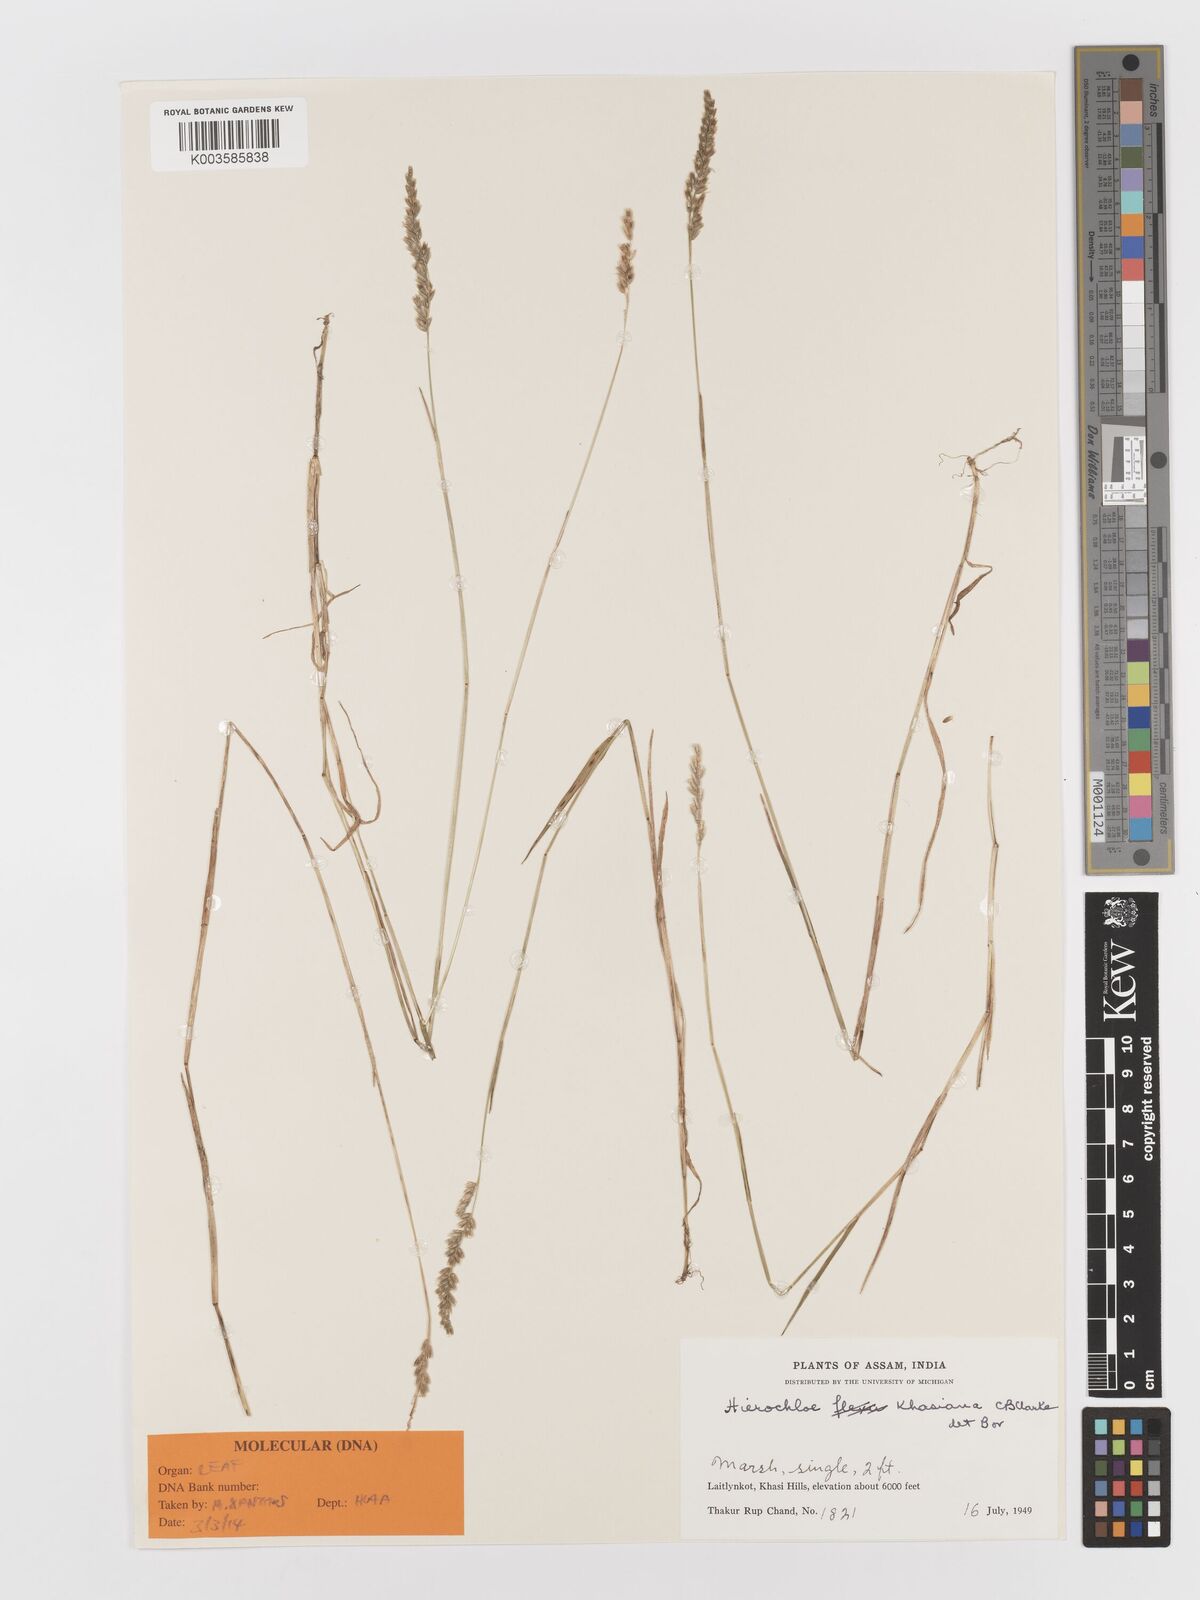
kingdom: Plantae
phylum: Tracheophyta
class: Liliopsida
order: Poales
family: Poaceae
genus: Anthoxanthum
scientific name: Anthoxanthum khasianum
